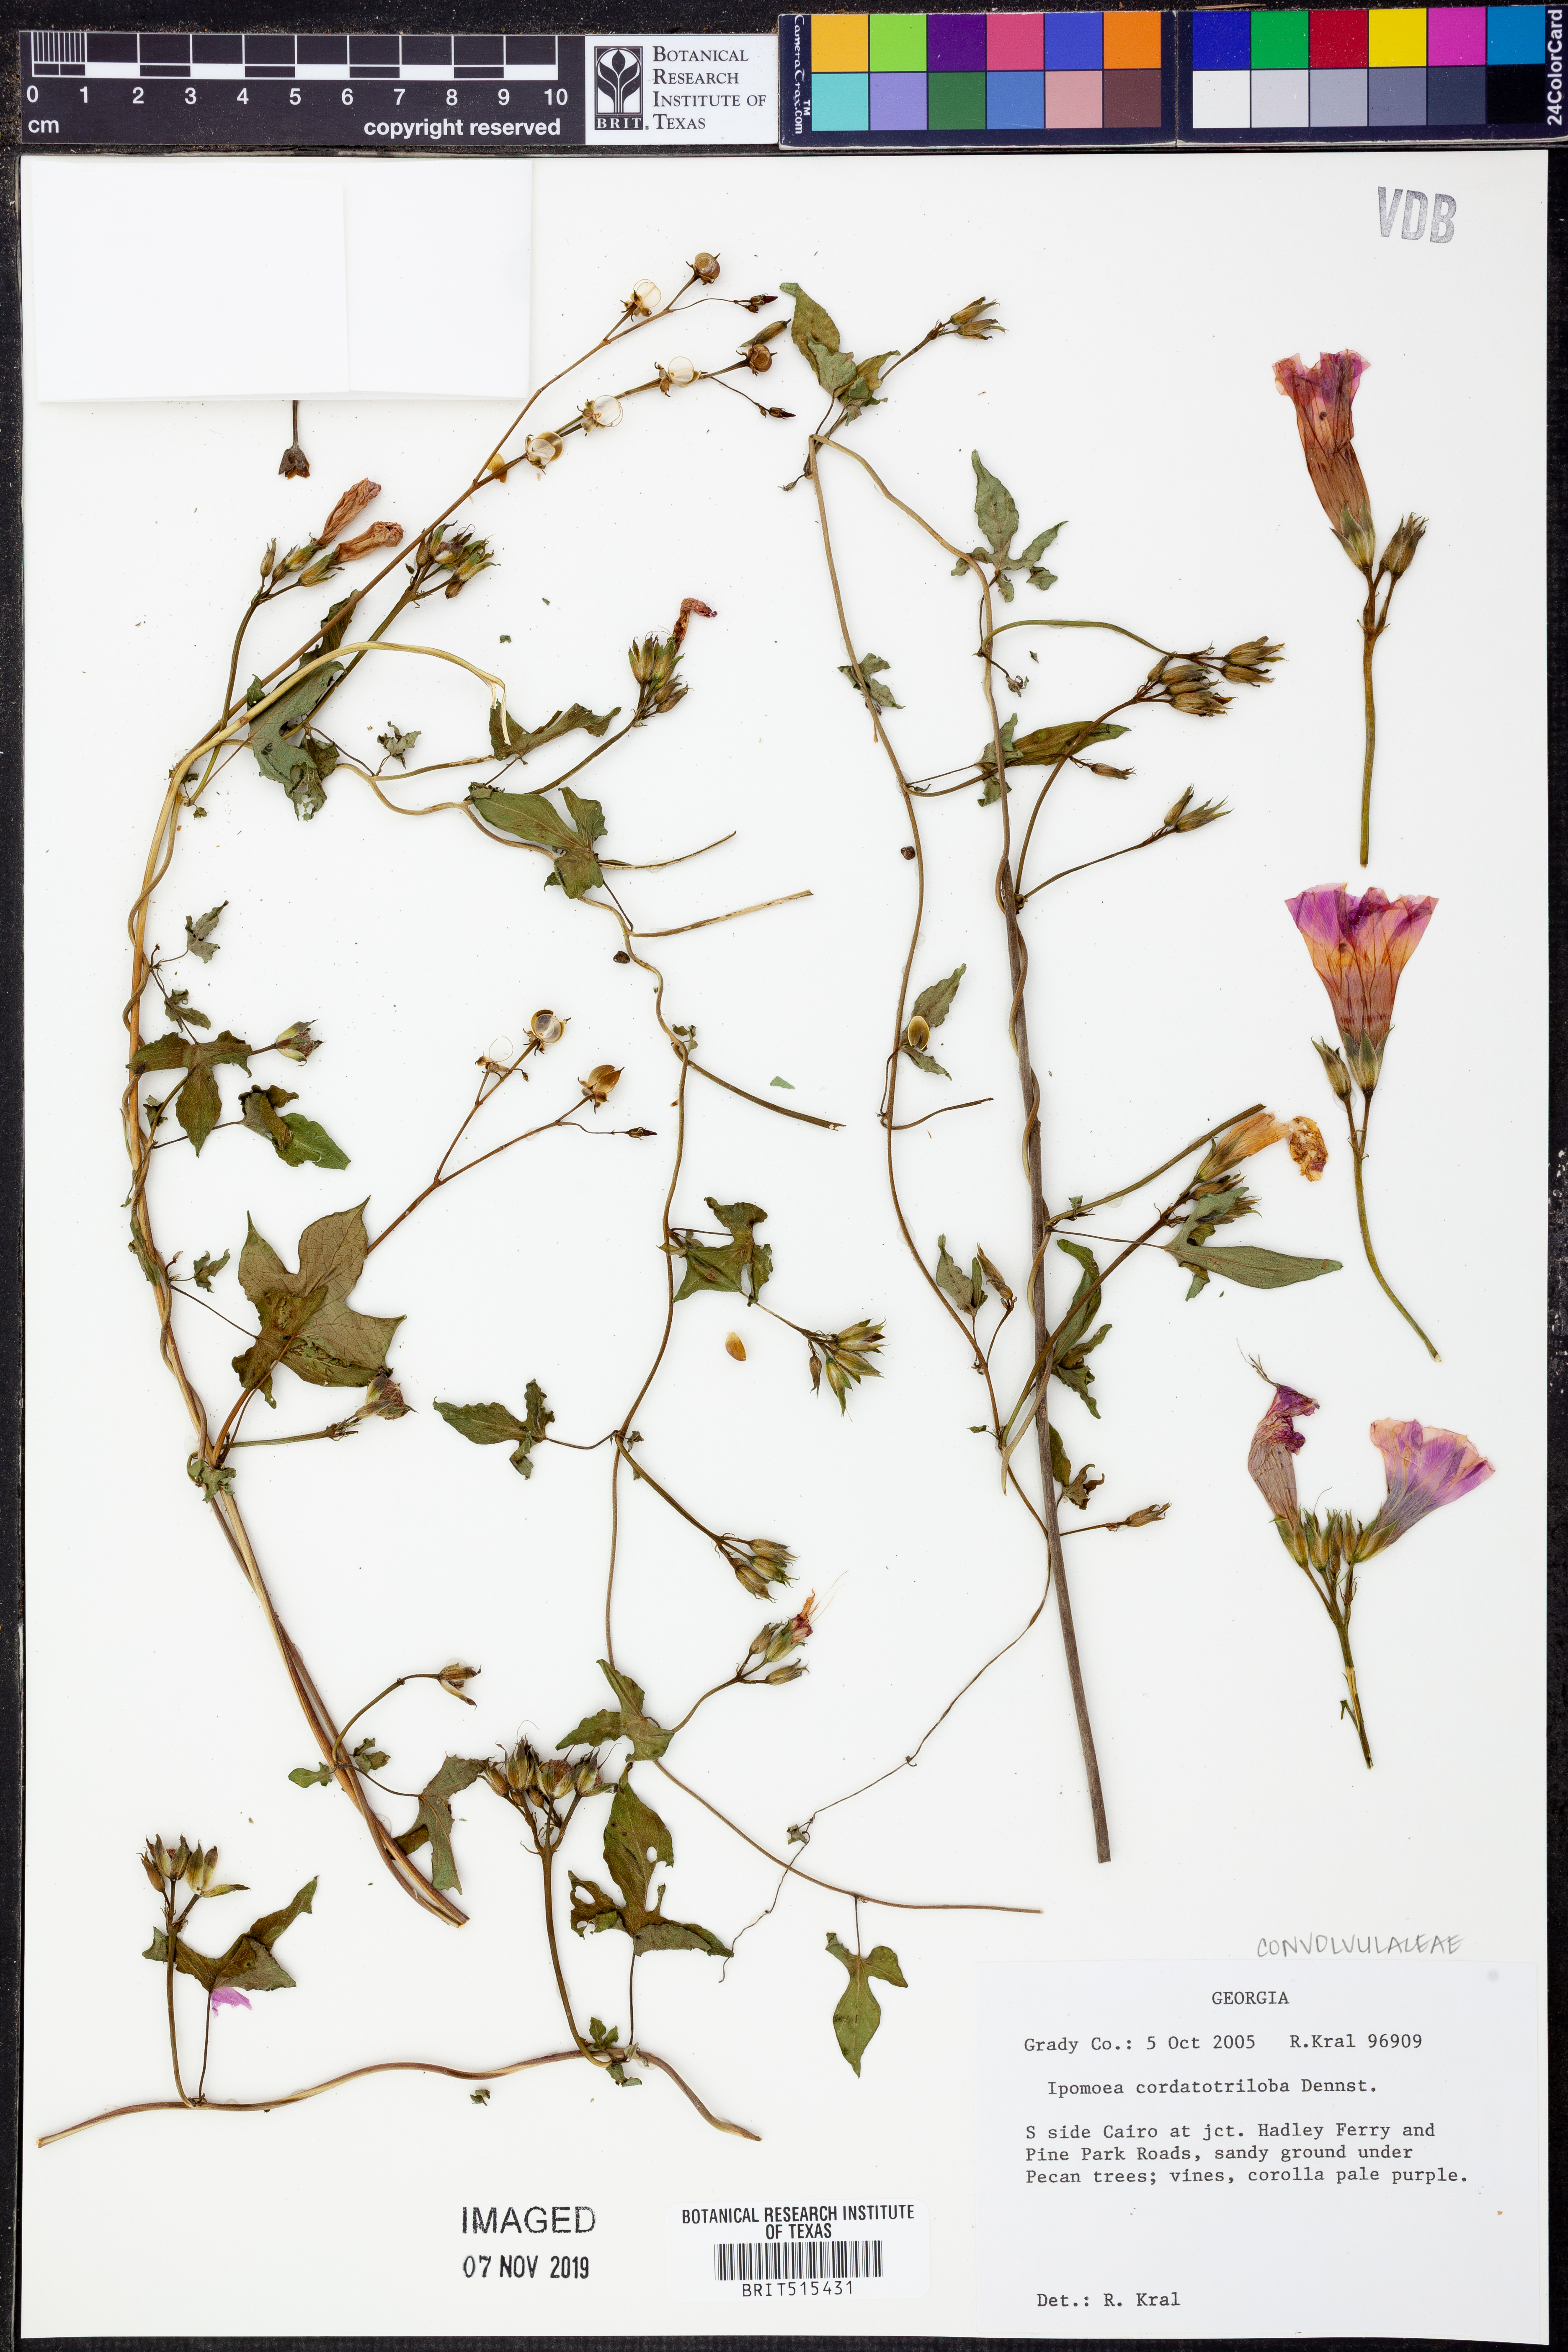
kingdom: Plantae
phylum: Tracheophyta
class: Magnoliopsida
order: Solanales
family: Convolvulaceae
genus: Ipomoea
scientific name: Ipomoea cordatotriloba
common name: Cotton morning glory
